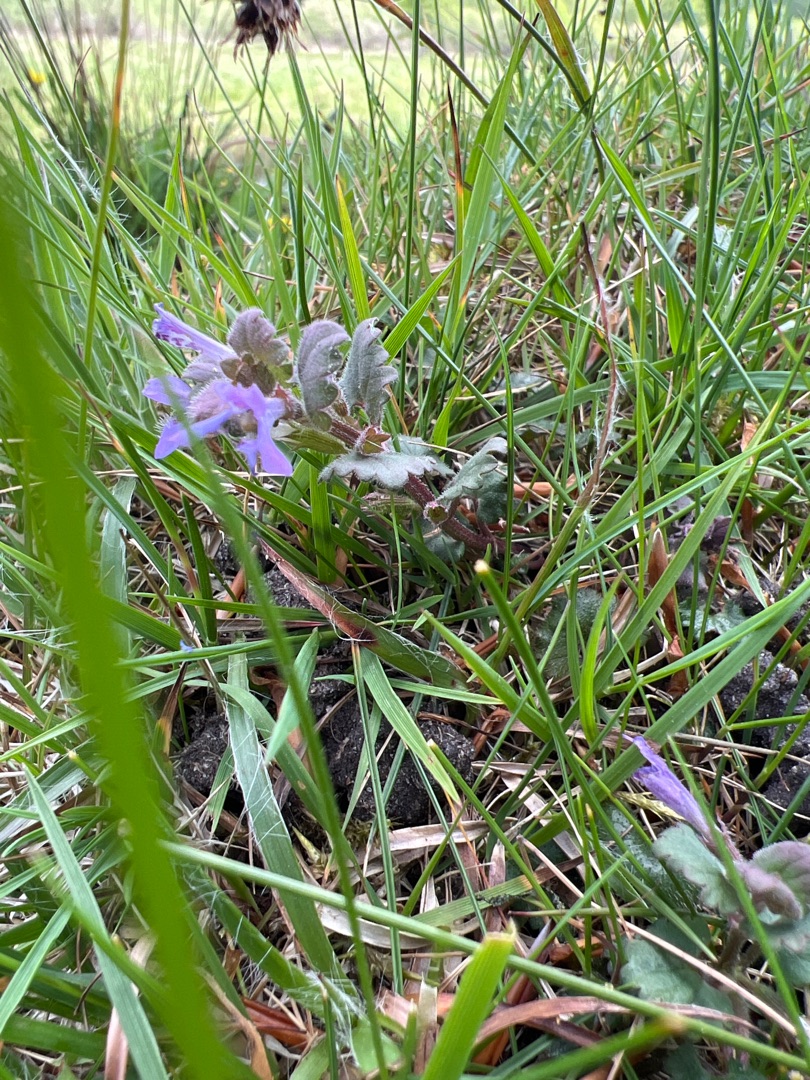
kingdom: Plantae
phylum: Tracheophyta
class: Magnoliopsida
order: Lamiales
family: Lamiaceae
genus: Glechoma
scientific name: Glechoma hederacea
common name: Korsknap
